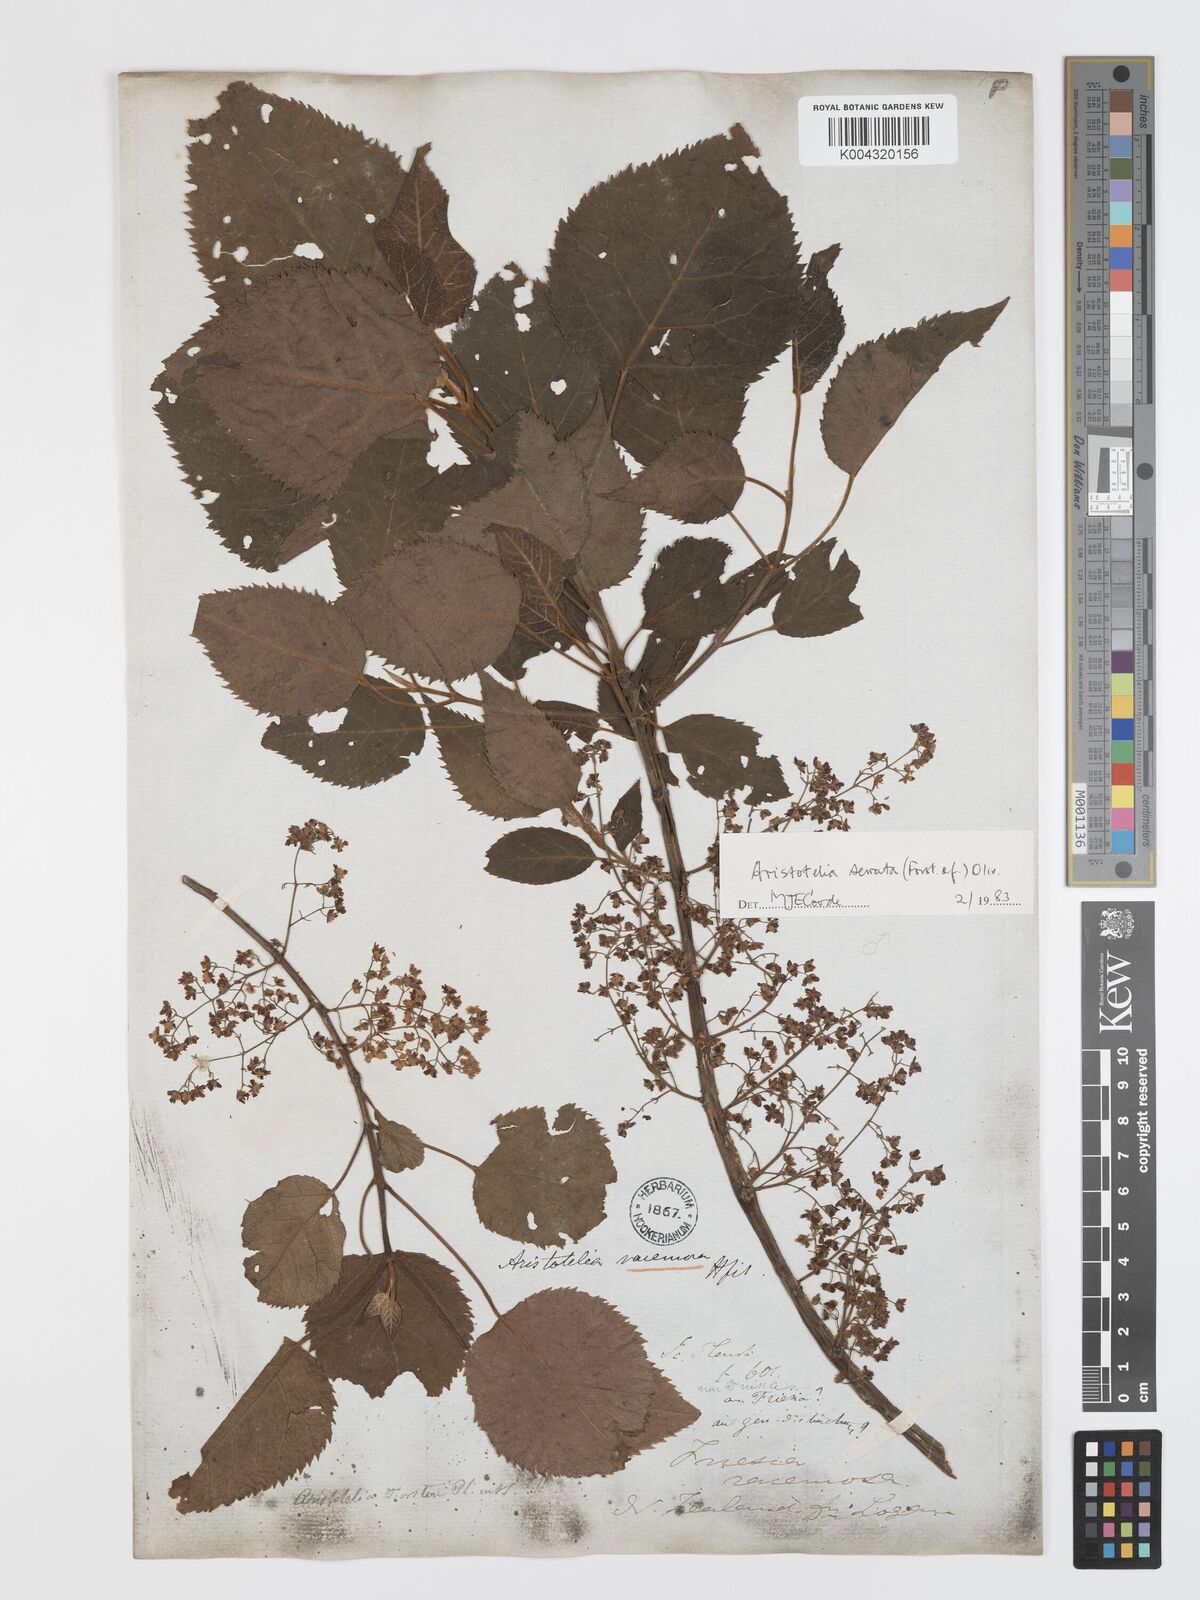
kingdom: Plantae
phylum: Tracheophyta
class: Magnoliopsida
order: Oxalidales
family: Elaeocarpaceae
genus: Aristotelia
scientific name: Aristotelia serrata
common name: New zealand wineberry
